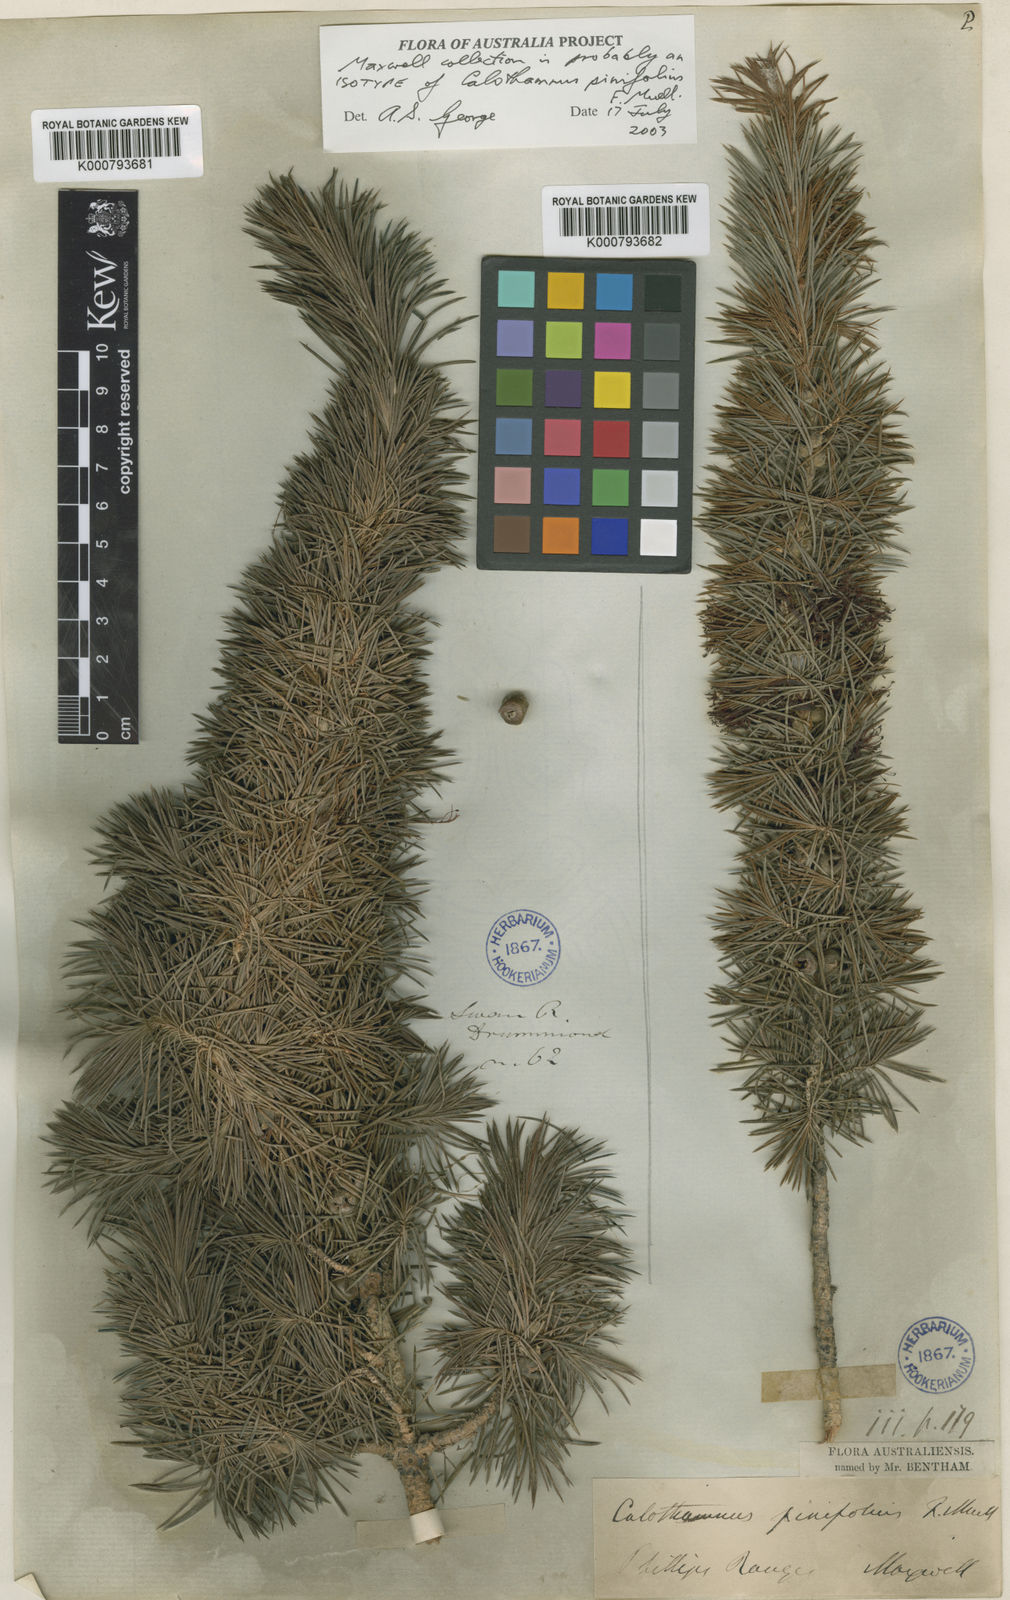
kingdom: Plantae
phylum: Tracheophyta
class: Magnoliopsida
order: Myrtales
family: Myrtaceae
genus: Melaleuca
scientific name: Melaleuca peucophylla
